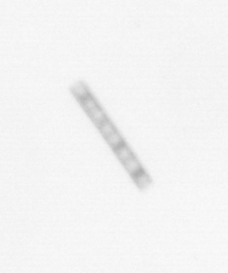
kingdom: Chromista
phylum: Ochrophyta
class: Bacillariophyceae
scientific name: Bacillariophyceae
